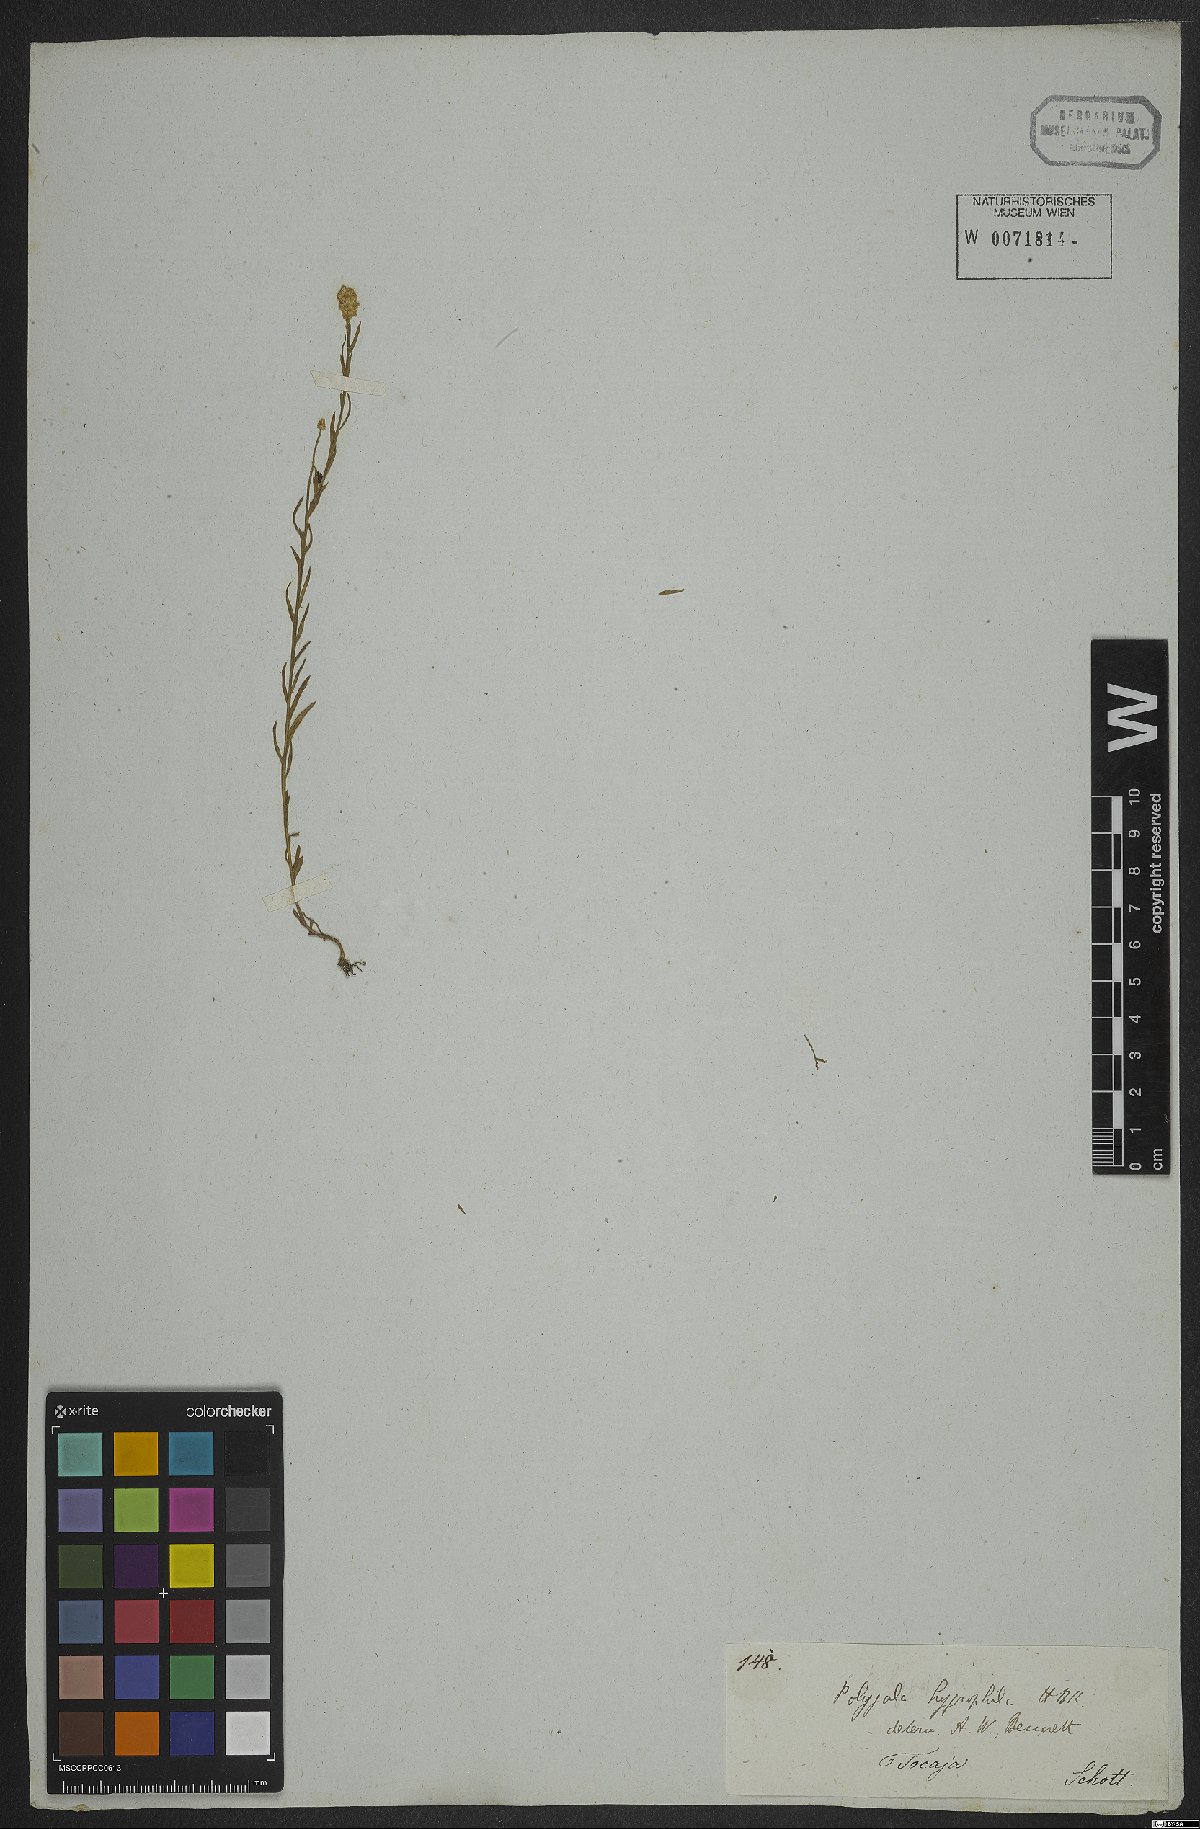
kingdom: Plantae
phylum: Tracheophyta
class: Magnoliopsida
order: Fabales
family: Polygalaceae
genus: Polygala
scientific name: Polygala hygrophila
